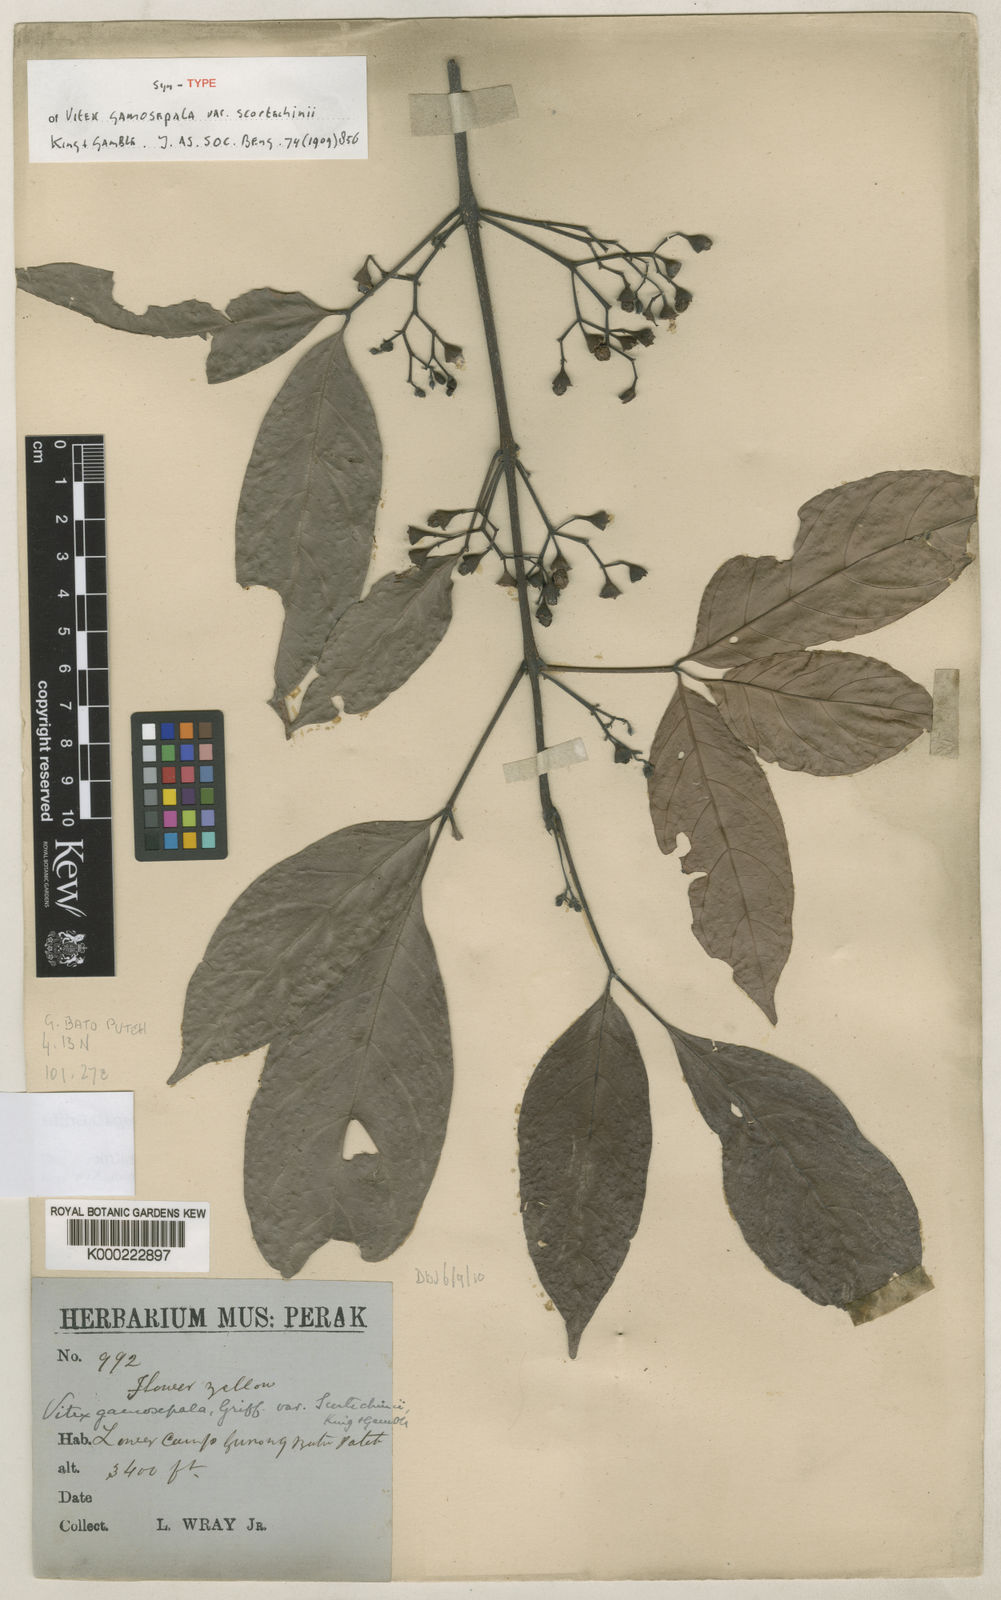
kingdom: Plantae
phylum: Tracheophyta
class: Magnoliopsida
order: Lamiales
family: Lamiaceae
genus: Vitex
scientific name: Vitex gamosepala
